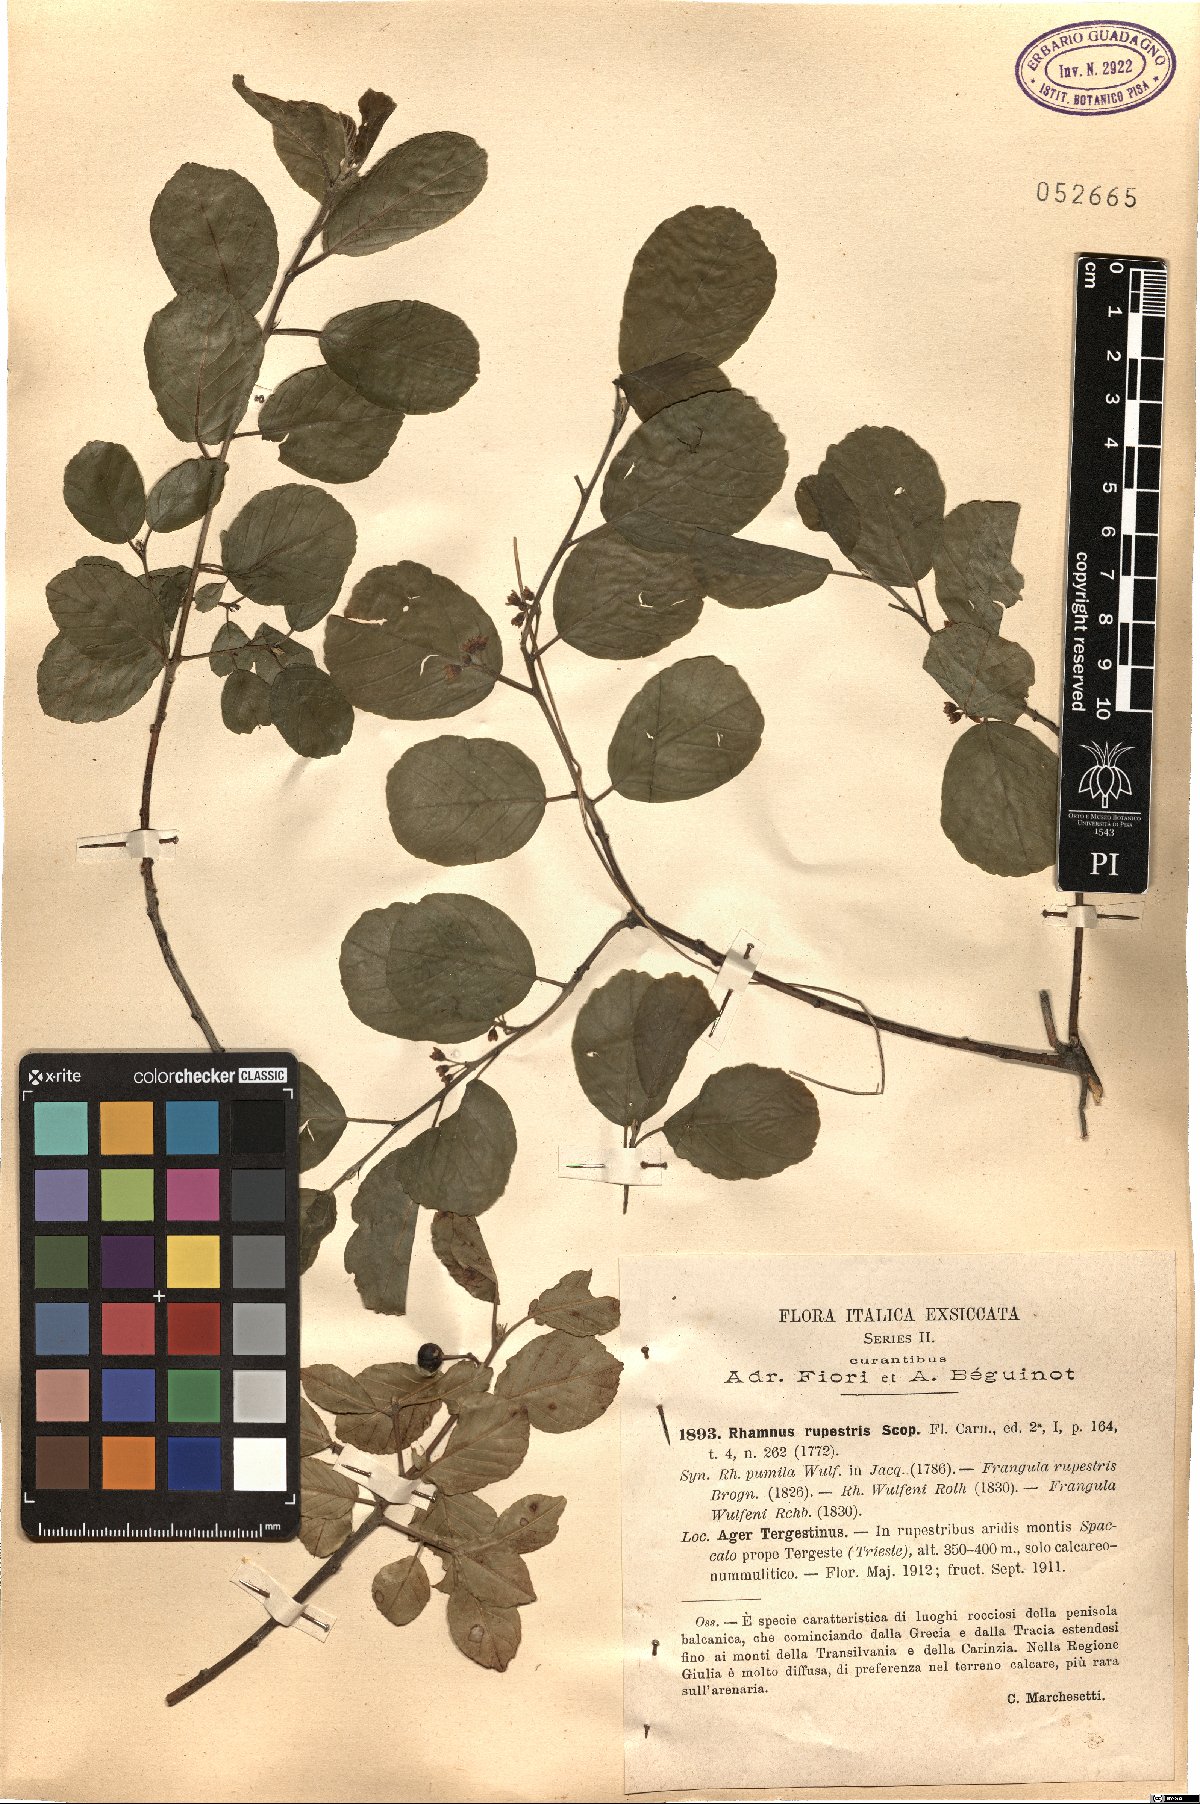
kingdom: Plantae
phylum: Tracheophyta
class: Magnoliopsida
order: Rosales
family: Rhamnaceae
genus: Frangula
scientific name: Frangula rupestris
